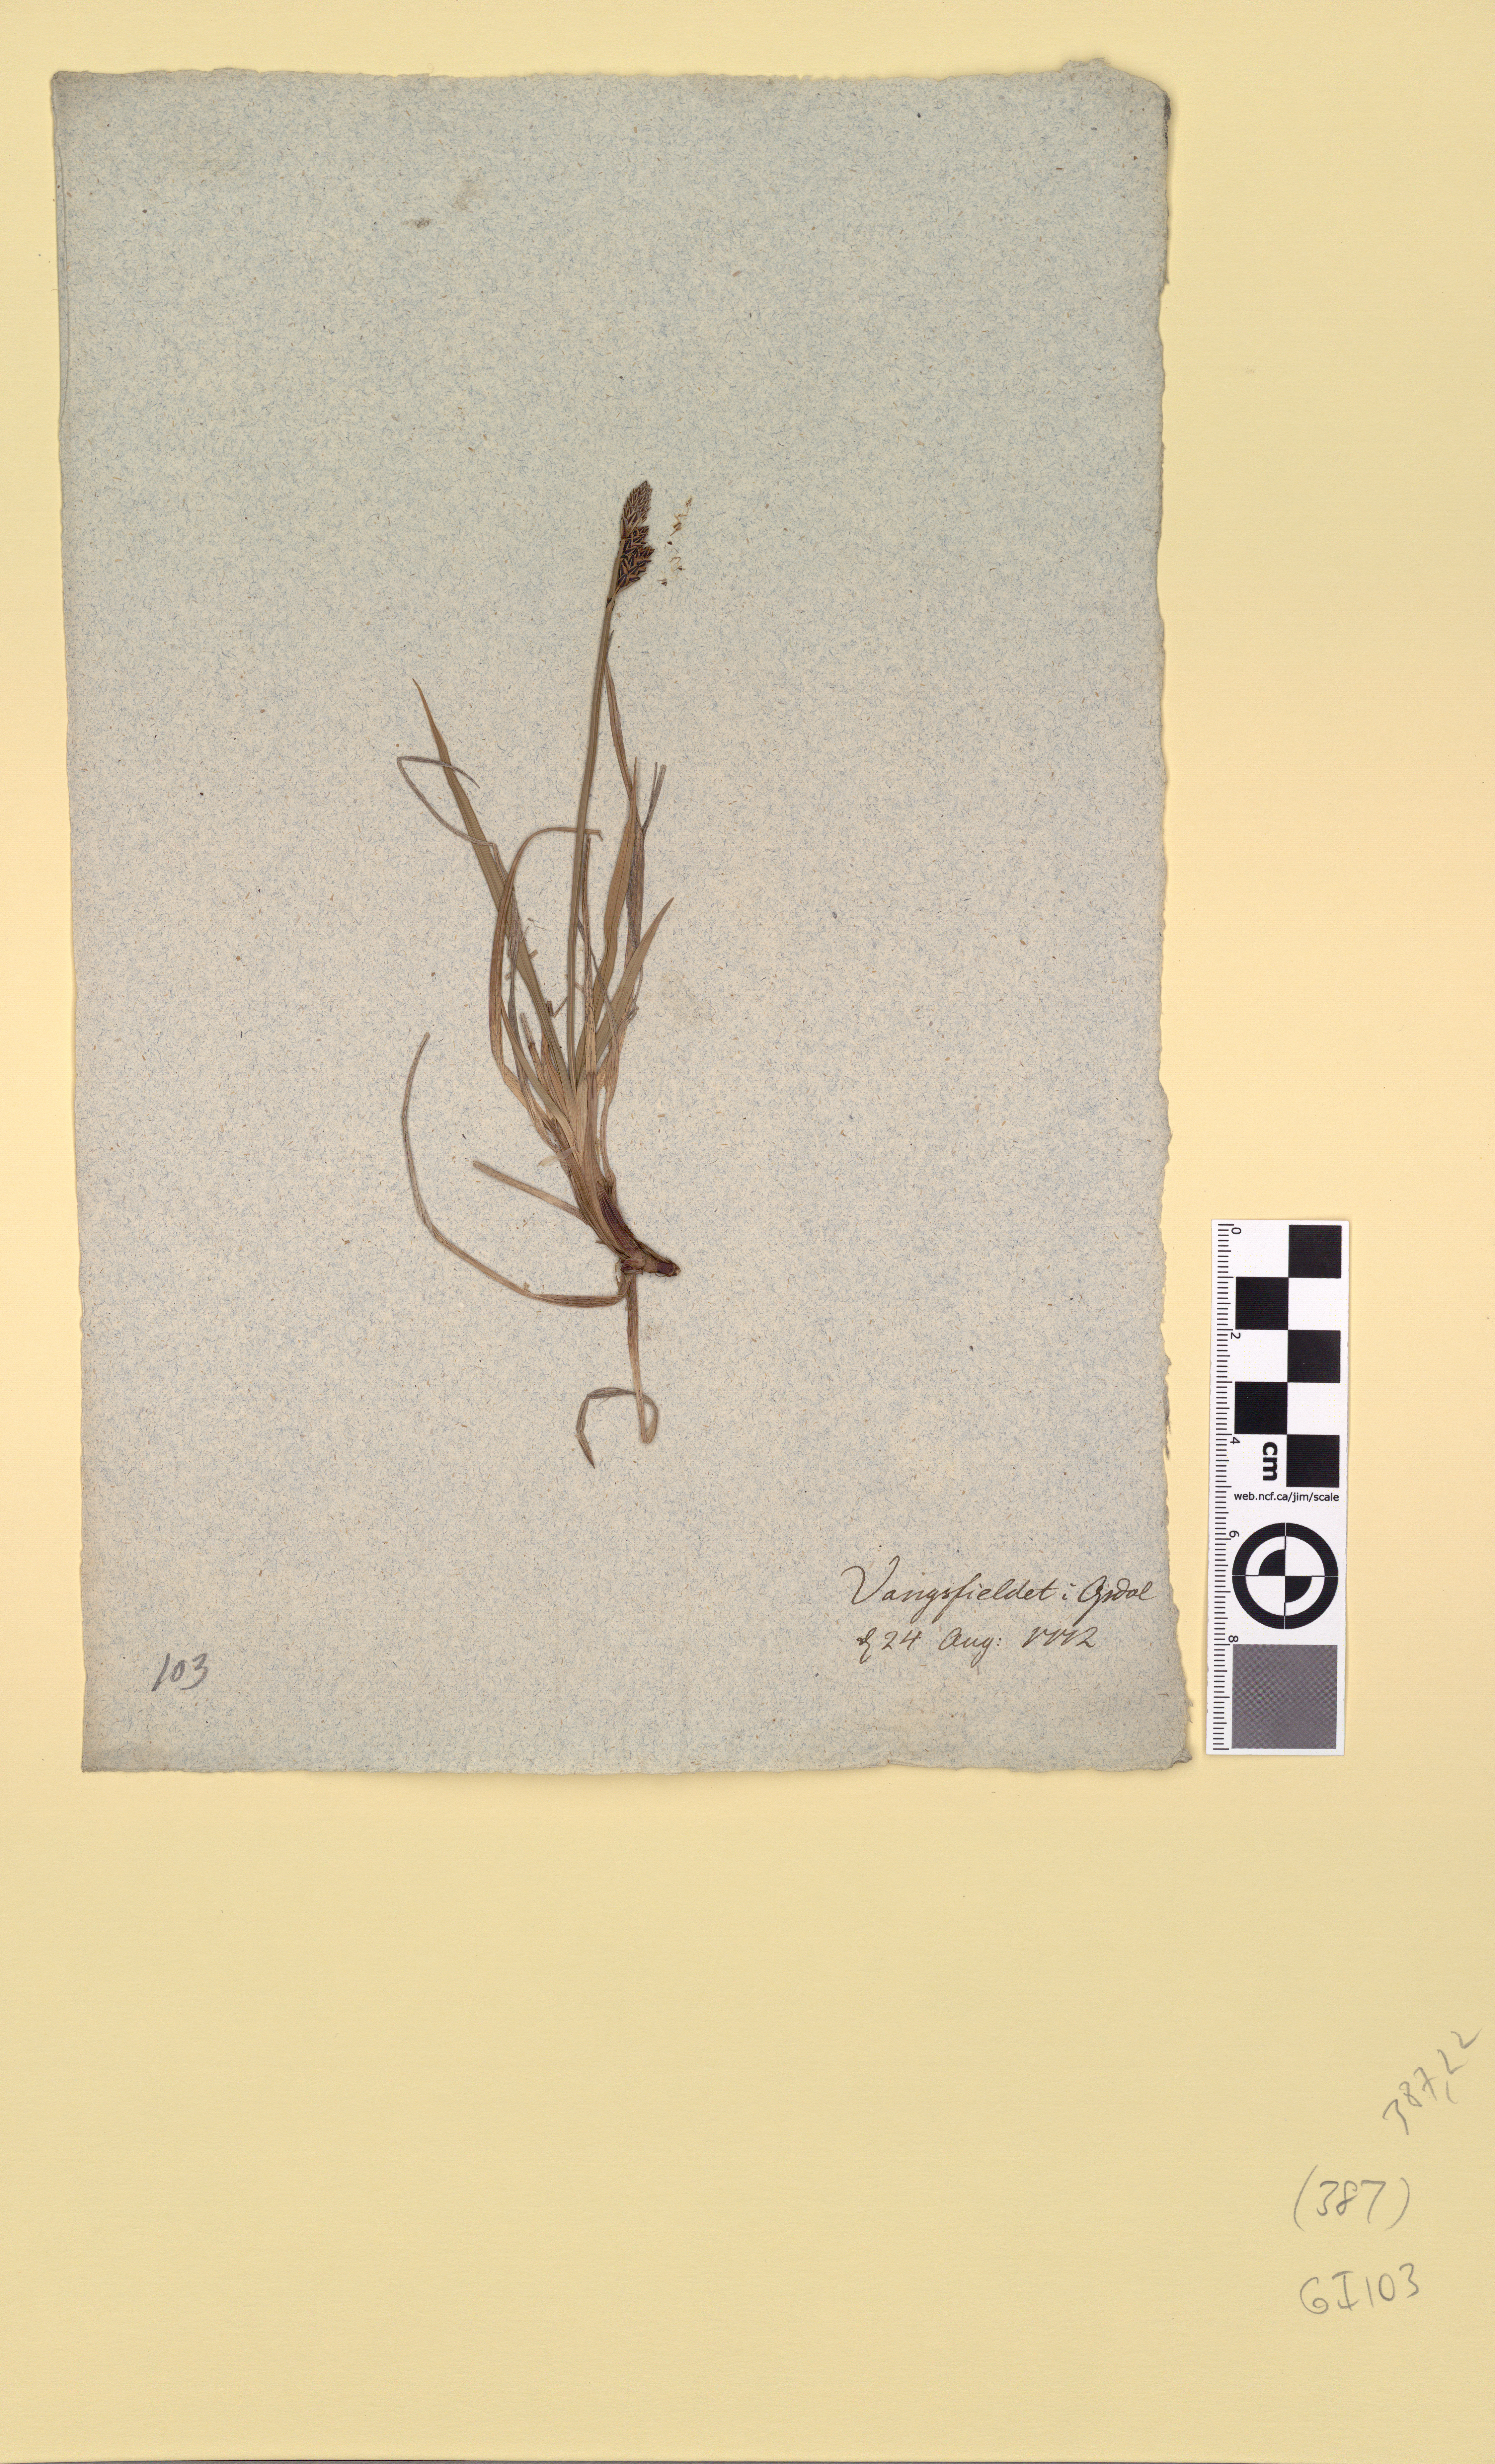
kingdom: Plantae
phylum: Tracheophyta
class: Liliopsida
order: Poales
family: Cyperaceae
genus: Carex
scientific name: Carex dacica
